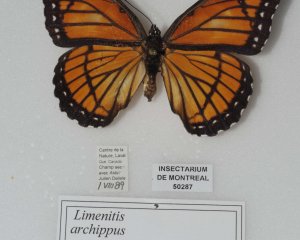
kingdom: Animalia
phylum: Arthropoda
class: Insecta
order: Lepidoptera
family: Nymphalidae
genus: Limenitis
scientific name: Limenitis archippus
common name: Viceroy
